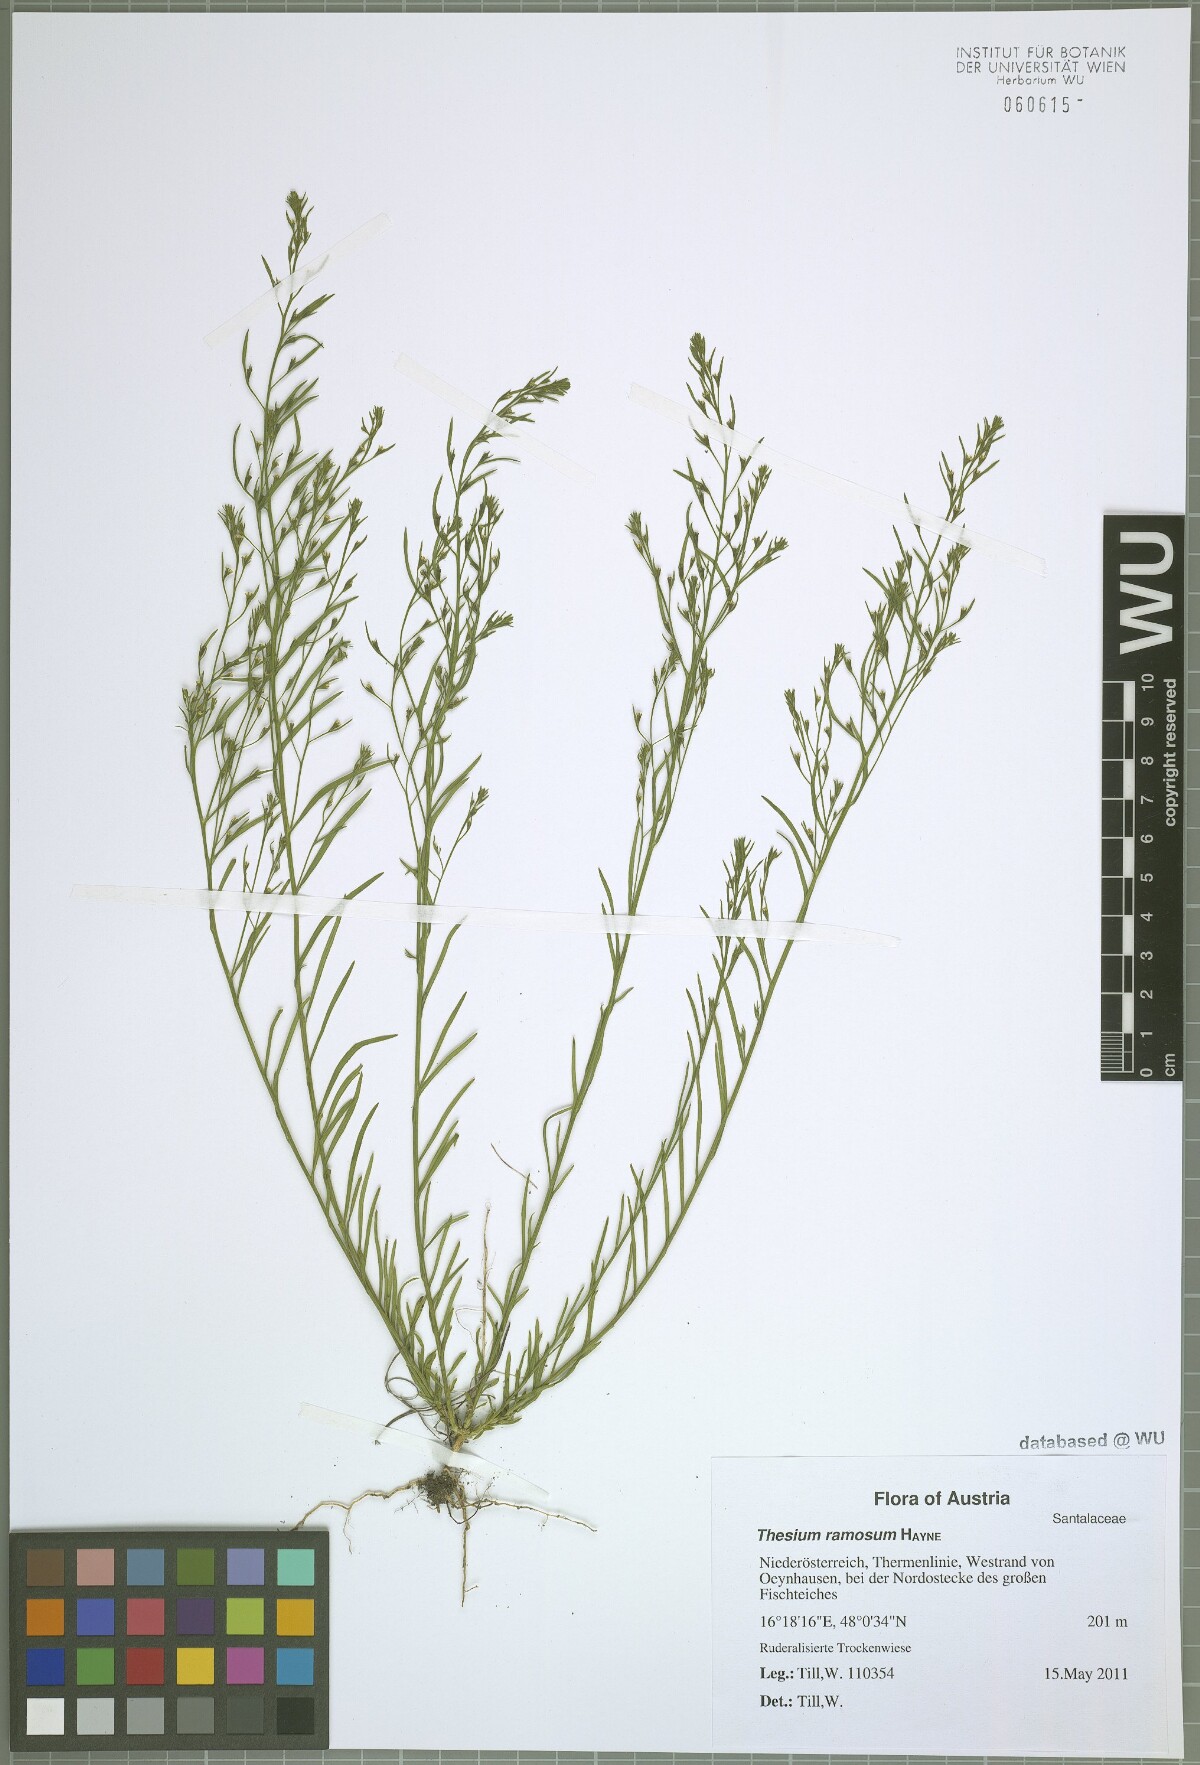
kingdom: Plantae
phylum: Tracheophyta
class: Magnoliopsida
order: Santalales
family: Thesiaceae
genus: Thesium
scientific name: Thesium ramosum
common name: Field thesium
